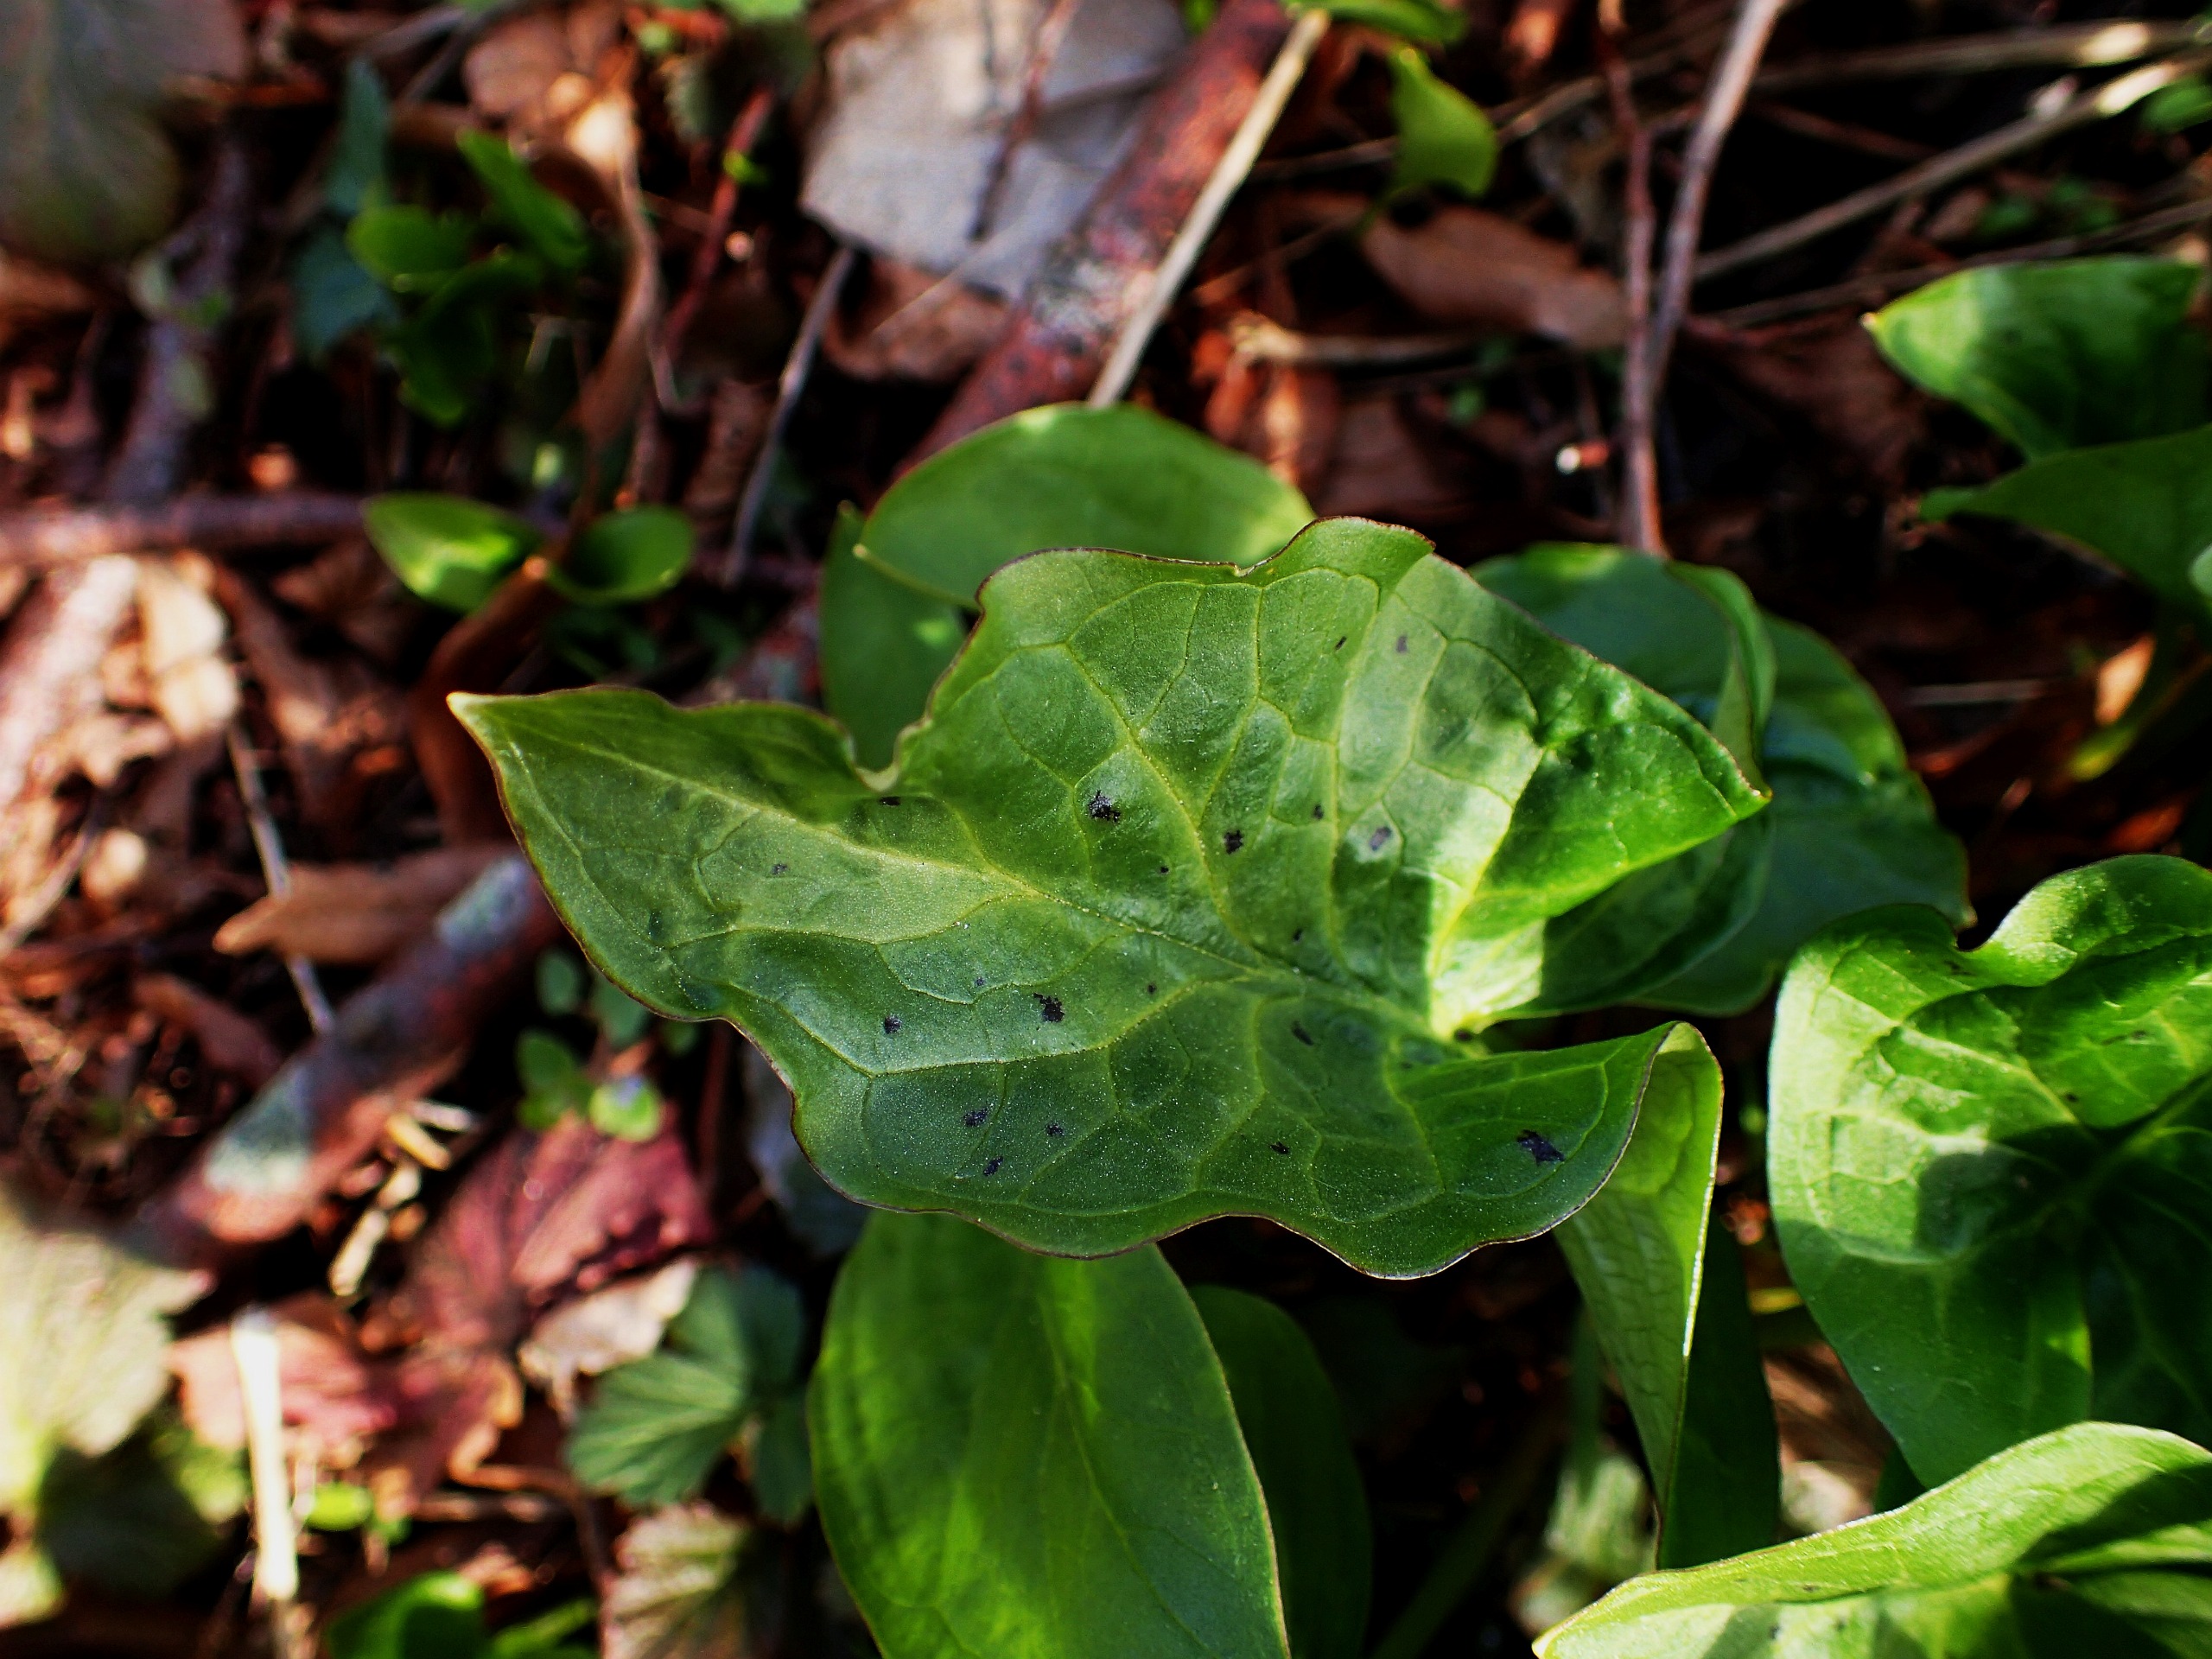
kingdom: Plantae
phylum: Tracheophyta
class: Liliopsida
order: Alismatales
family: Araceae
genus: Arum
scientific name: Arum maculatum
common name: Plettet arum
